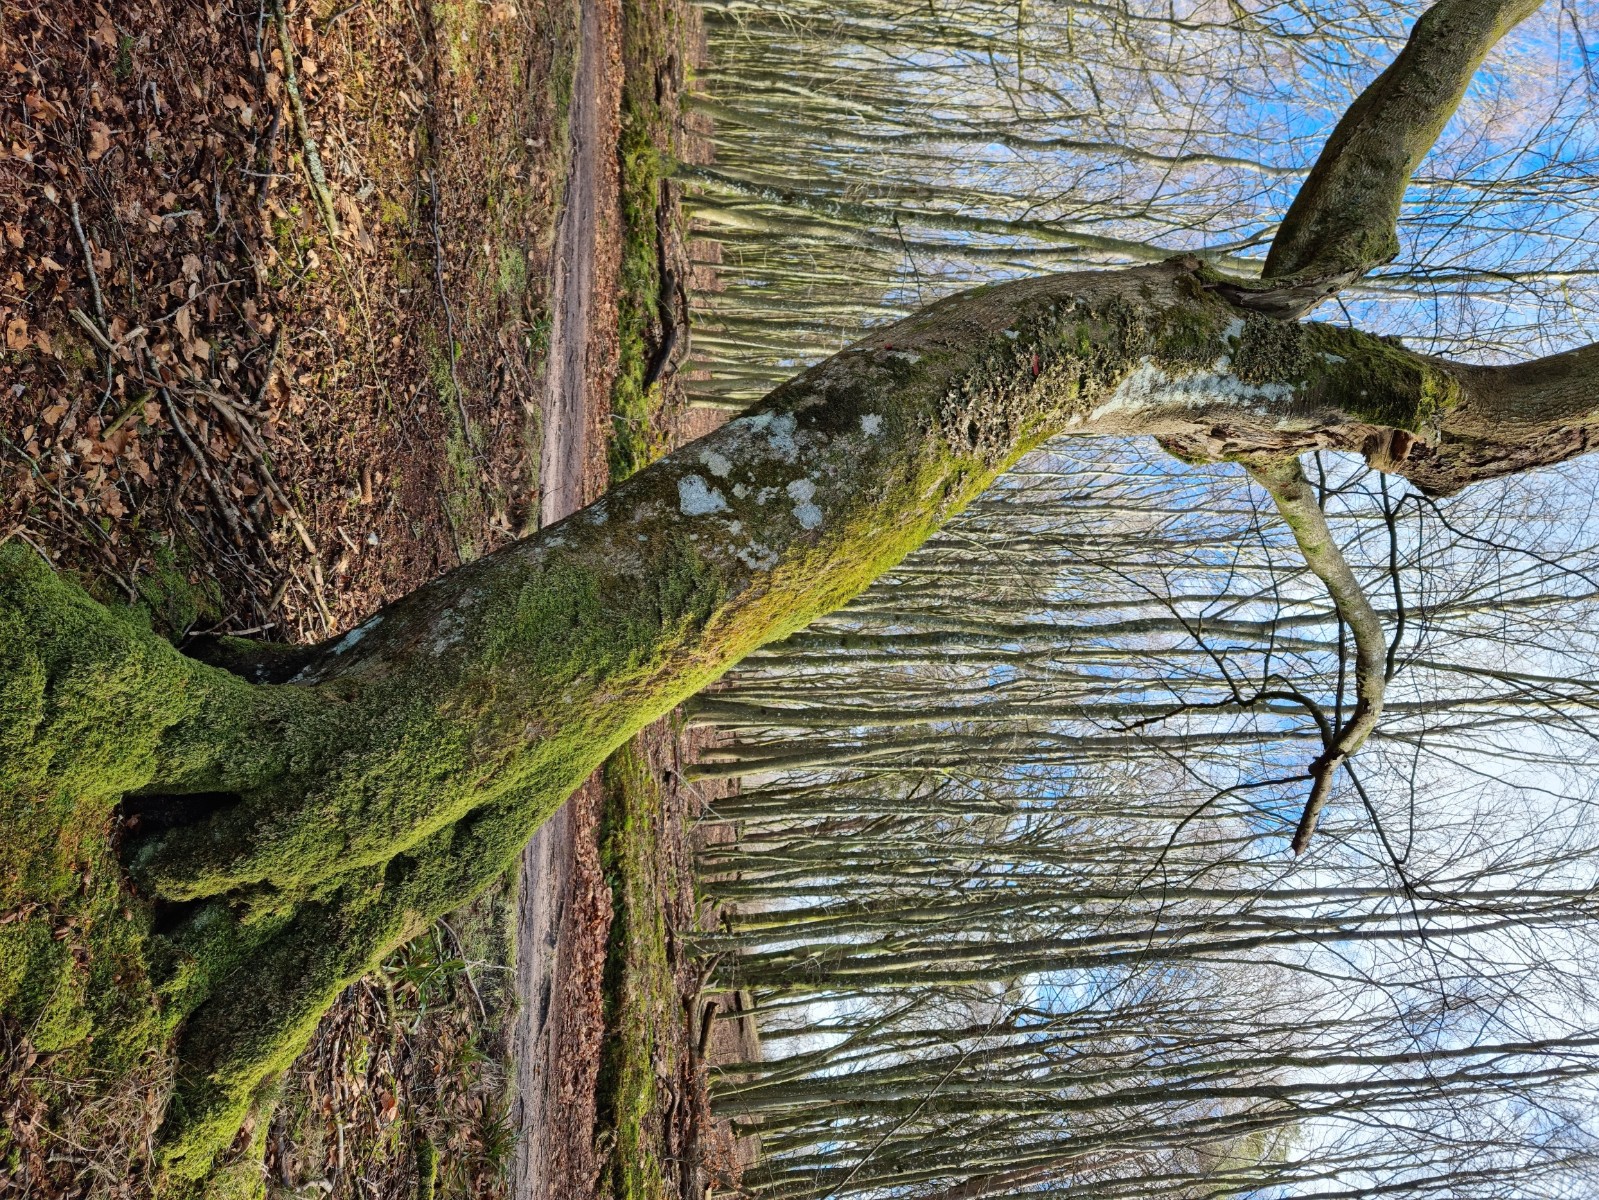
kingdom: Fungi
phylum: Ascomycota
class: Lecanoromycetes
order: Peltigerales
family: Lobariaceae
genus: Lobaria
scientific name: Lobaria pulmonaria
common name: almindelig lungelav
